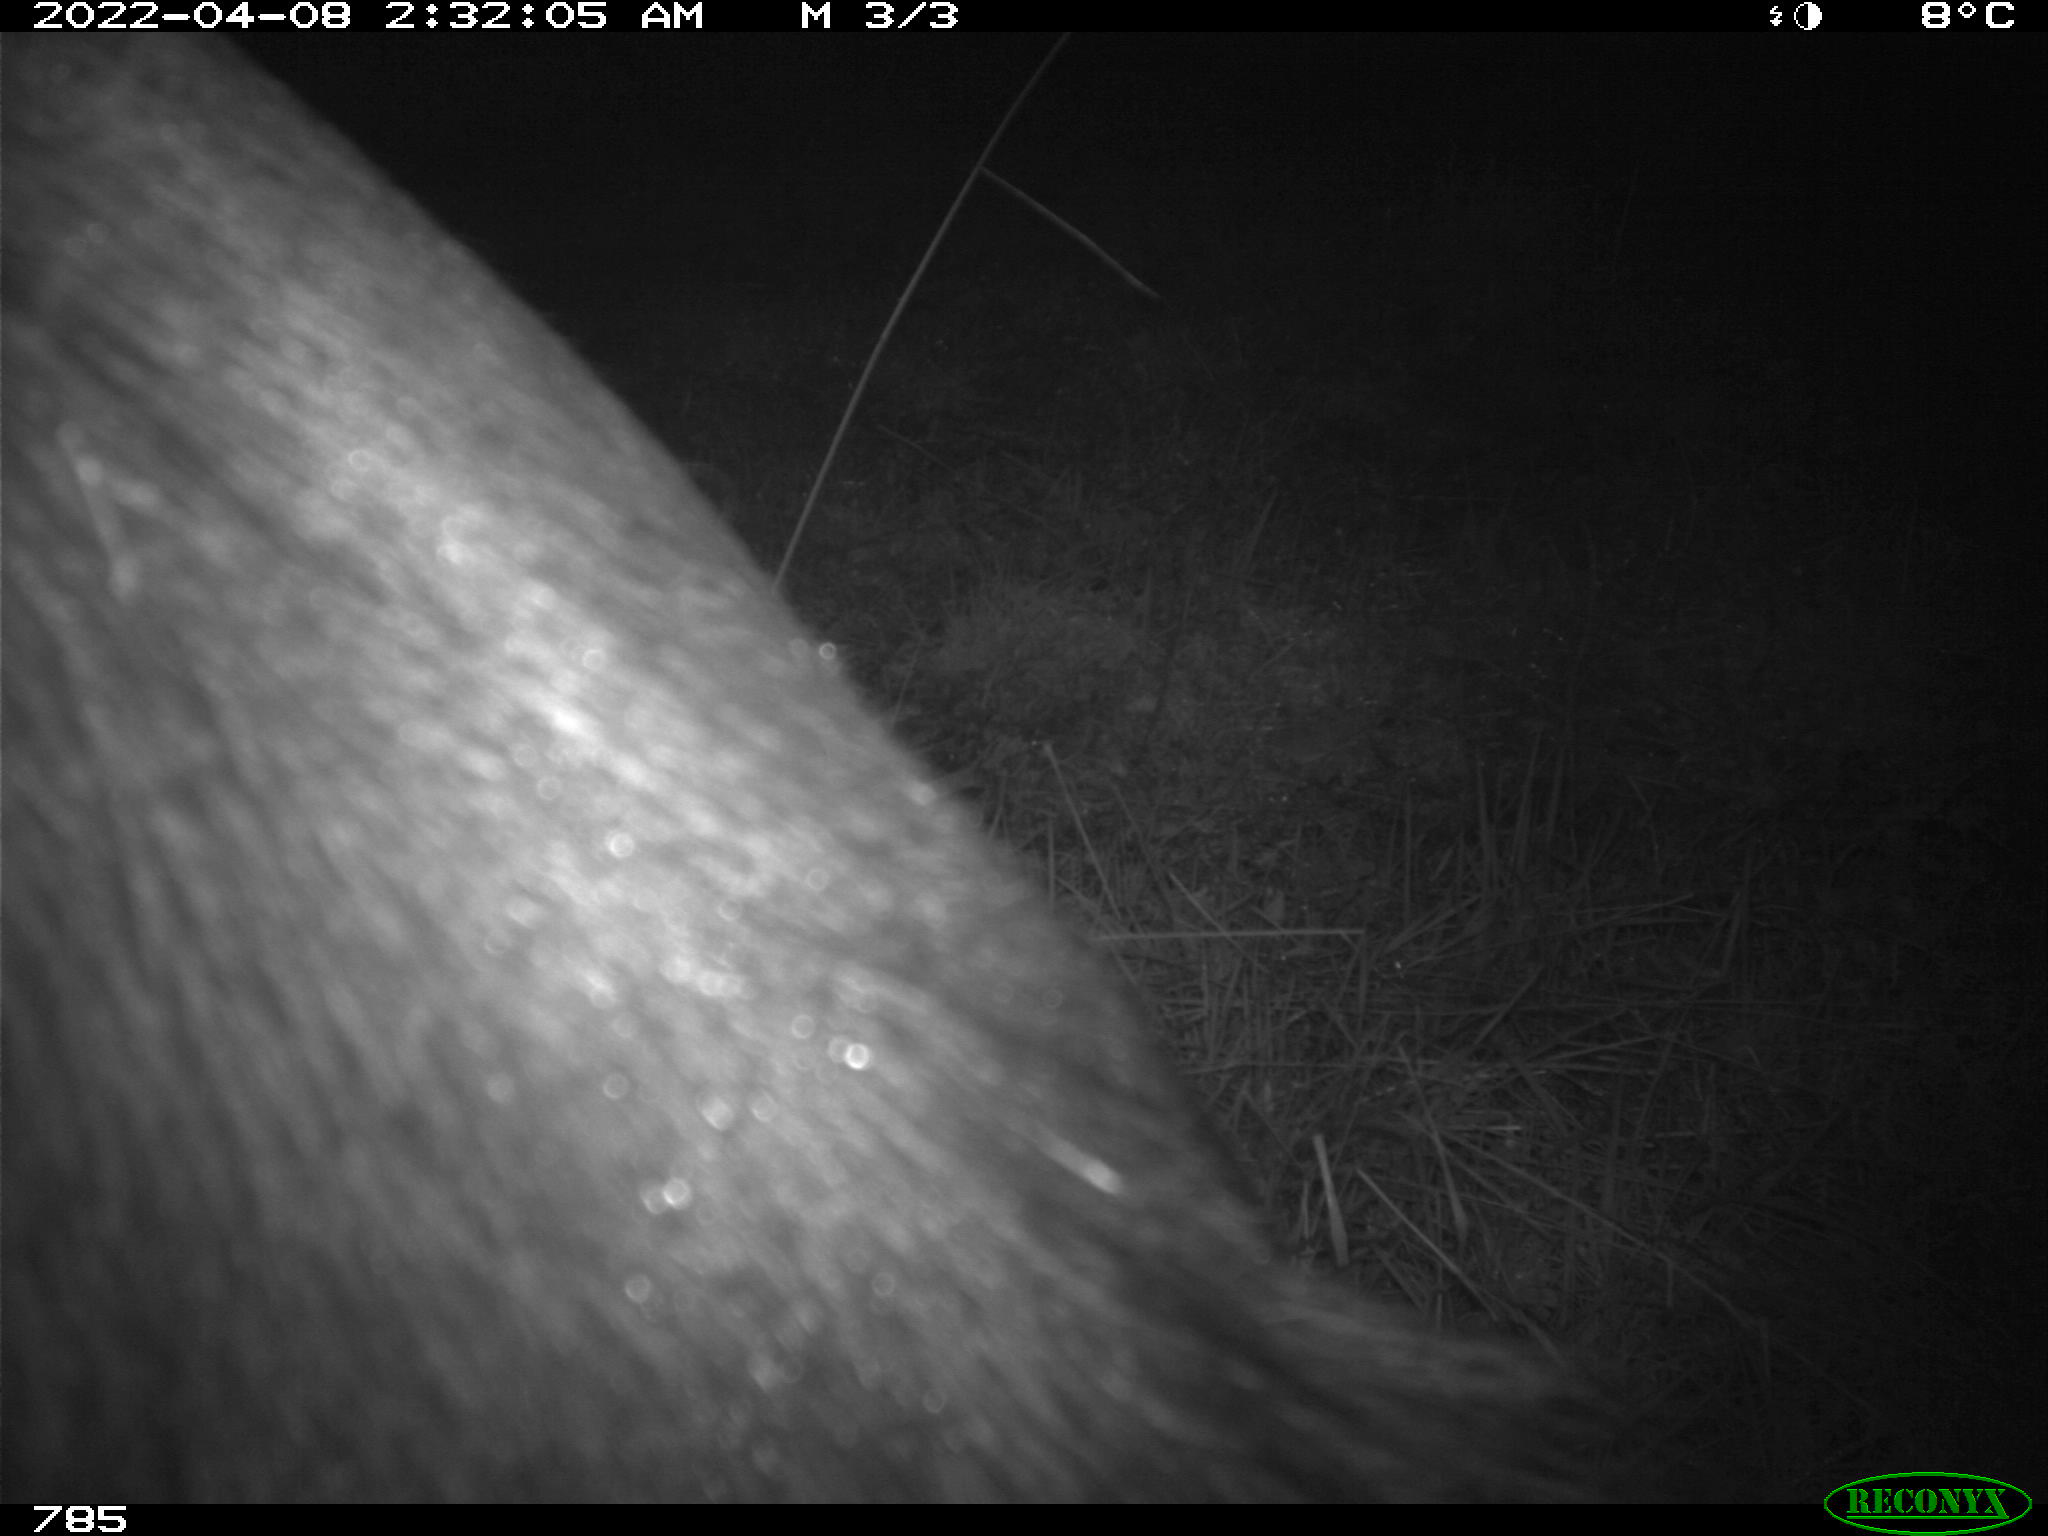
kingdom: Animalia
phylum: Chordata
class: Mammalia
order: Perissodactyla
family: Equidae
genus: Equus
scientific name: Equus caballus
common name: Horse
